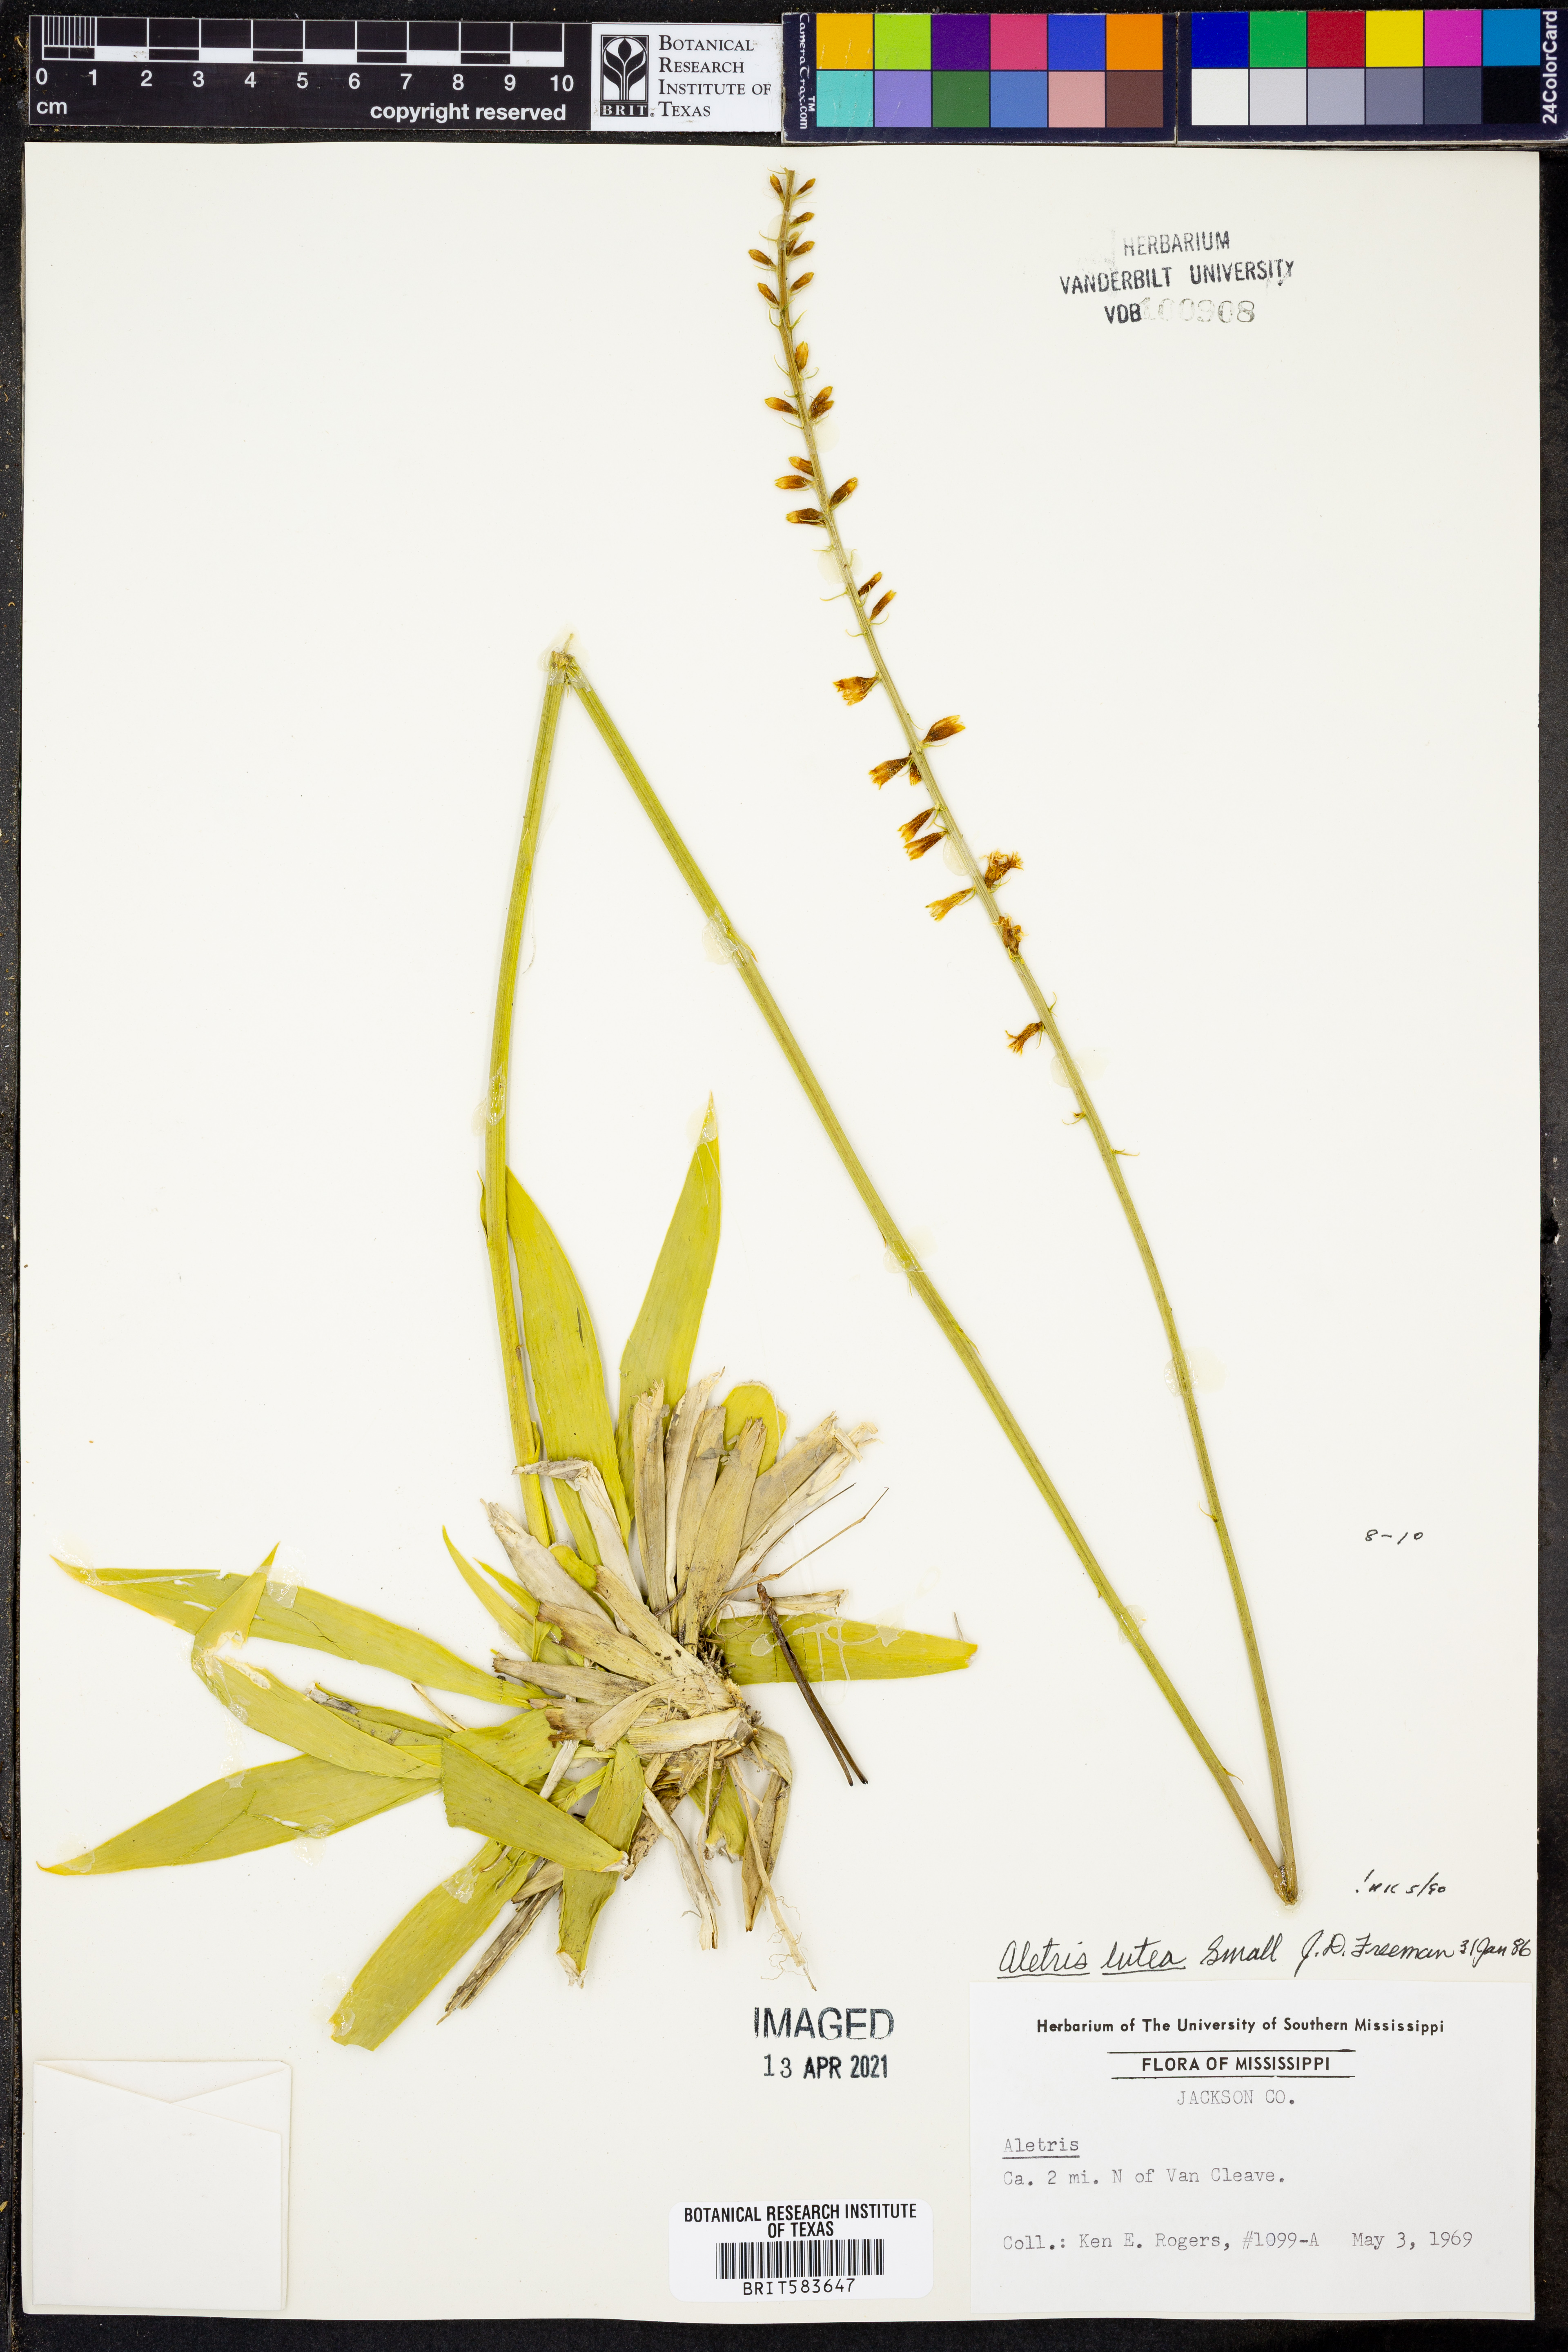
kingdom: Plantae
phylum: Tracheophyta
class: Liliopsida
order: Dioscoreales
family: Nartheciaceae
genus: Aletris
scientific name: Aletris lutea
